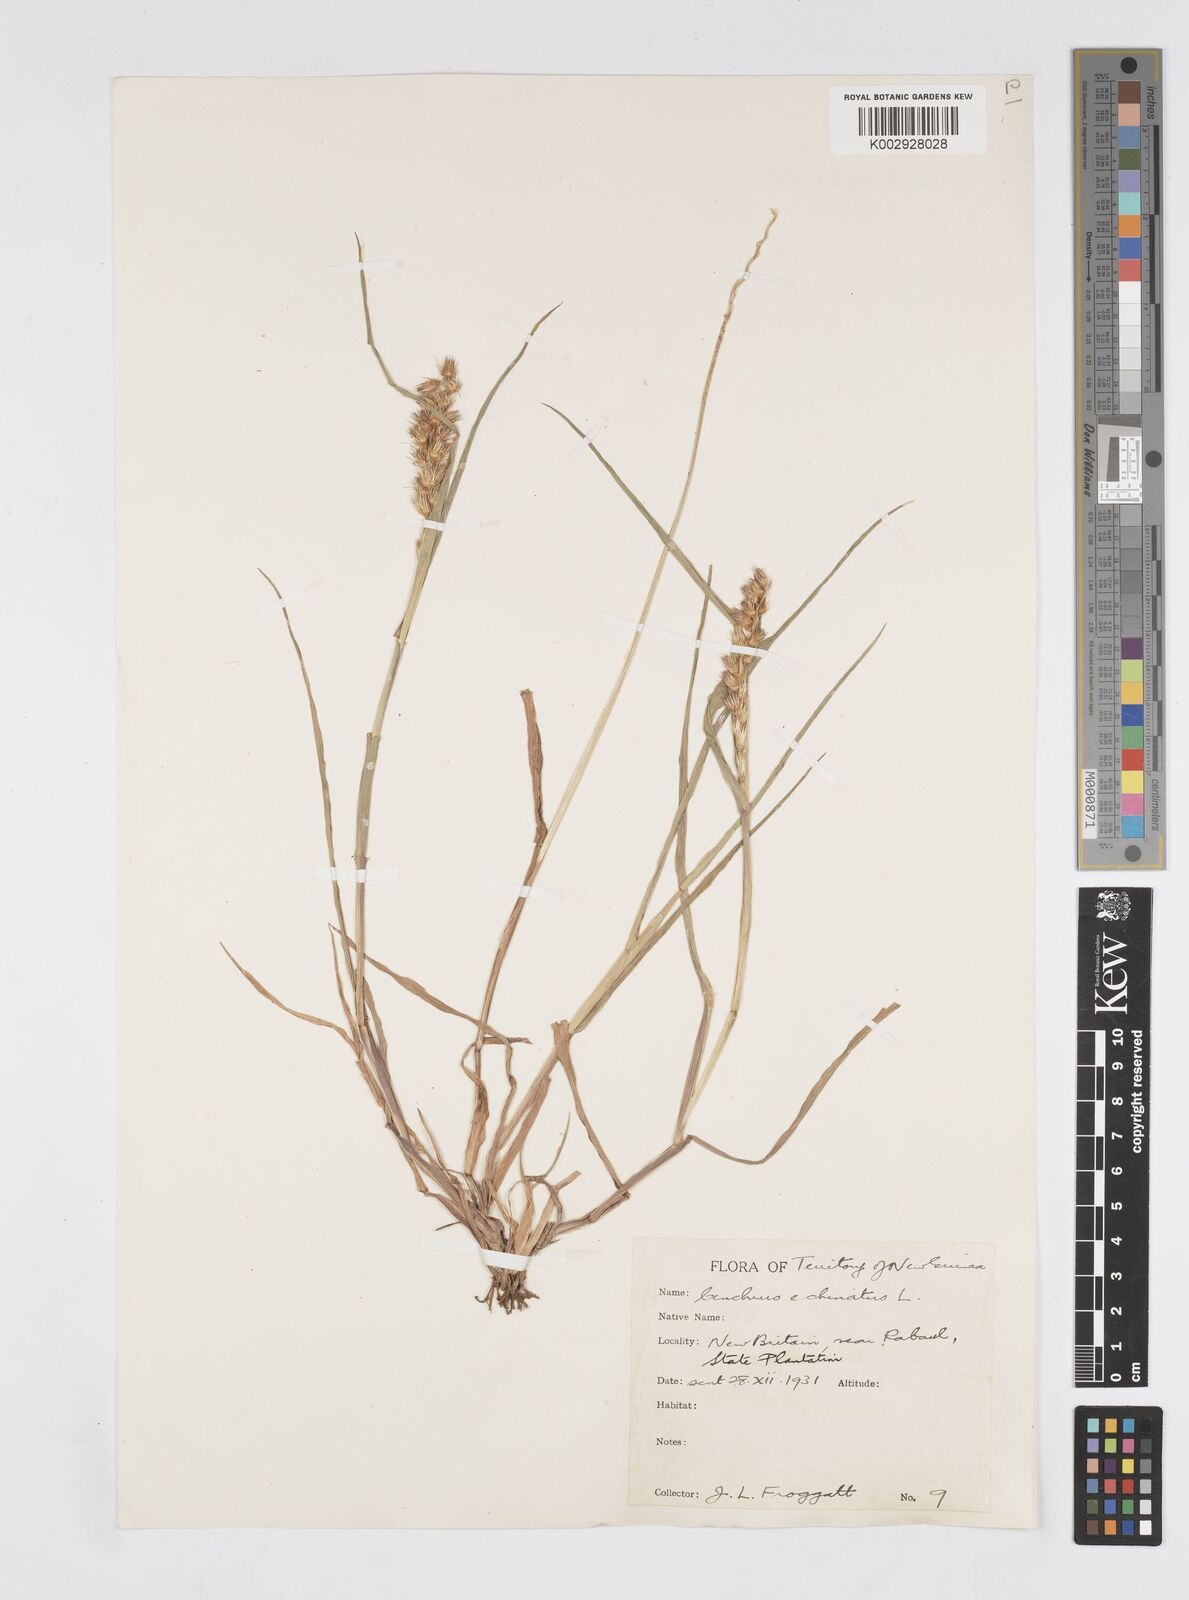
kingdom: Plantae
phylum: Tracheophyta
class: Liliopsida
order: Poales
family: Poaceae
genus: Cenchrus
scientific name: Cenchrus brownii
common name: Slim-bristle sandbur
